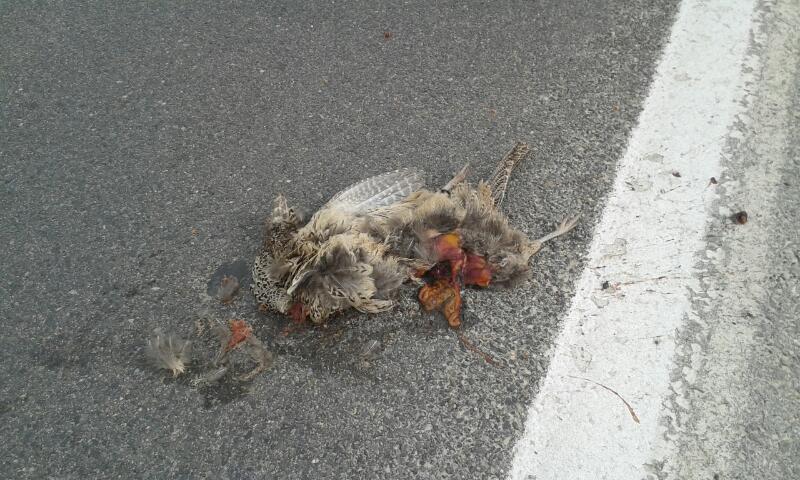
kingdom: Animalia
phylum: Chordata
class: Aves
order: Galliformes
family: Phasianidae
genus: Phasianus
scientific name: Phasianus colchicus
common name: Common pheasant
